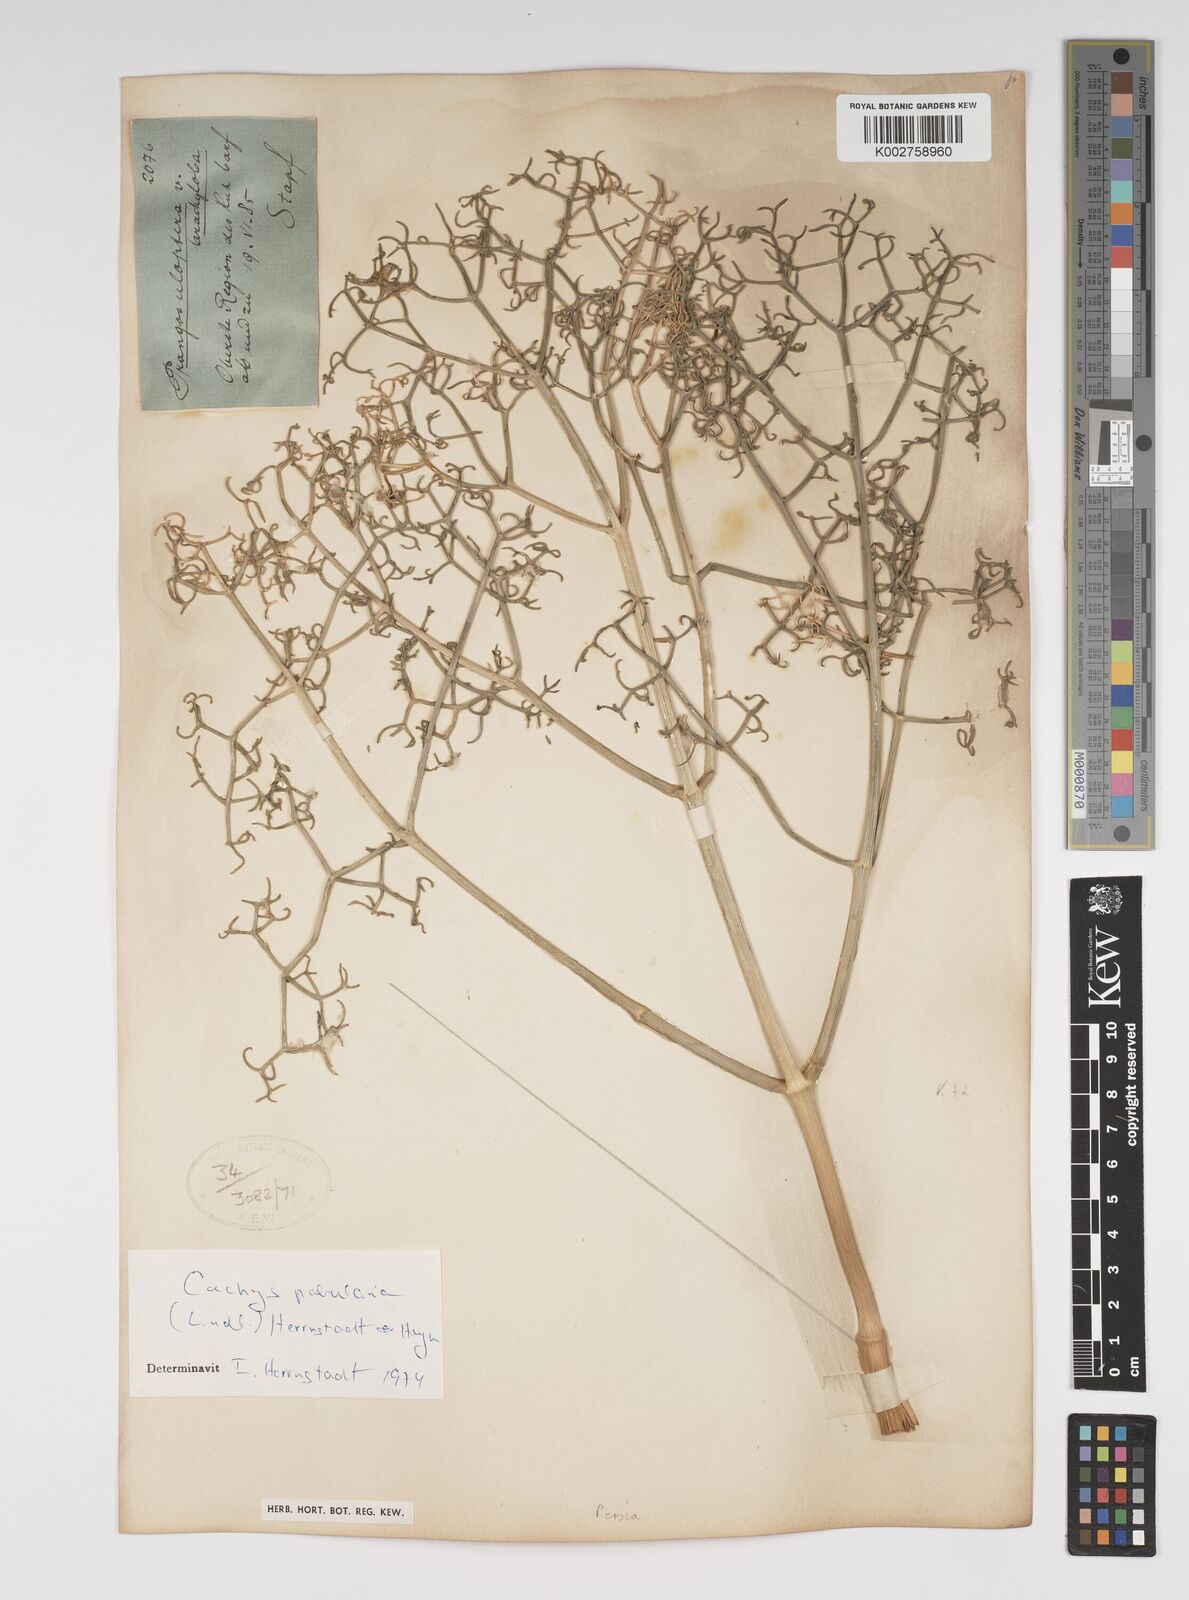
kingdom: Plantae
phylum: Tracheophyta
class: Magnoliopsida
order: Apiales
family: Apiaceae
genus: Prangos
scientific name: Prangos pabularia
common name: Yugan
